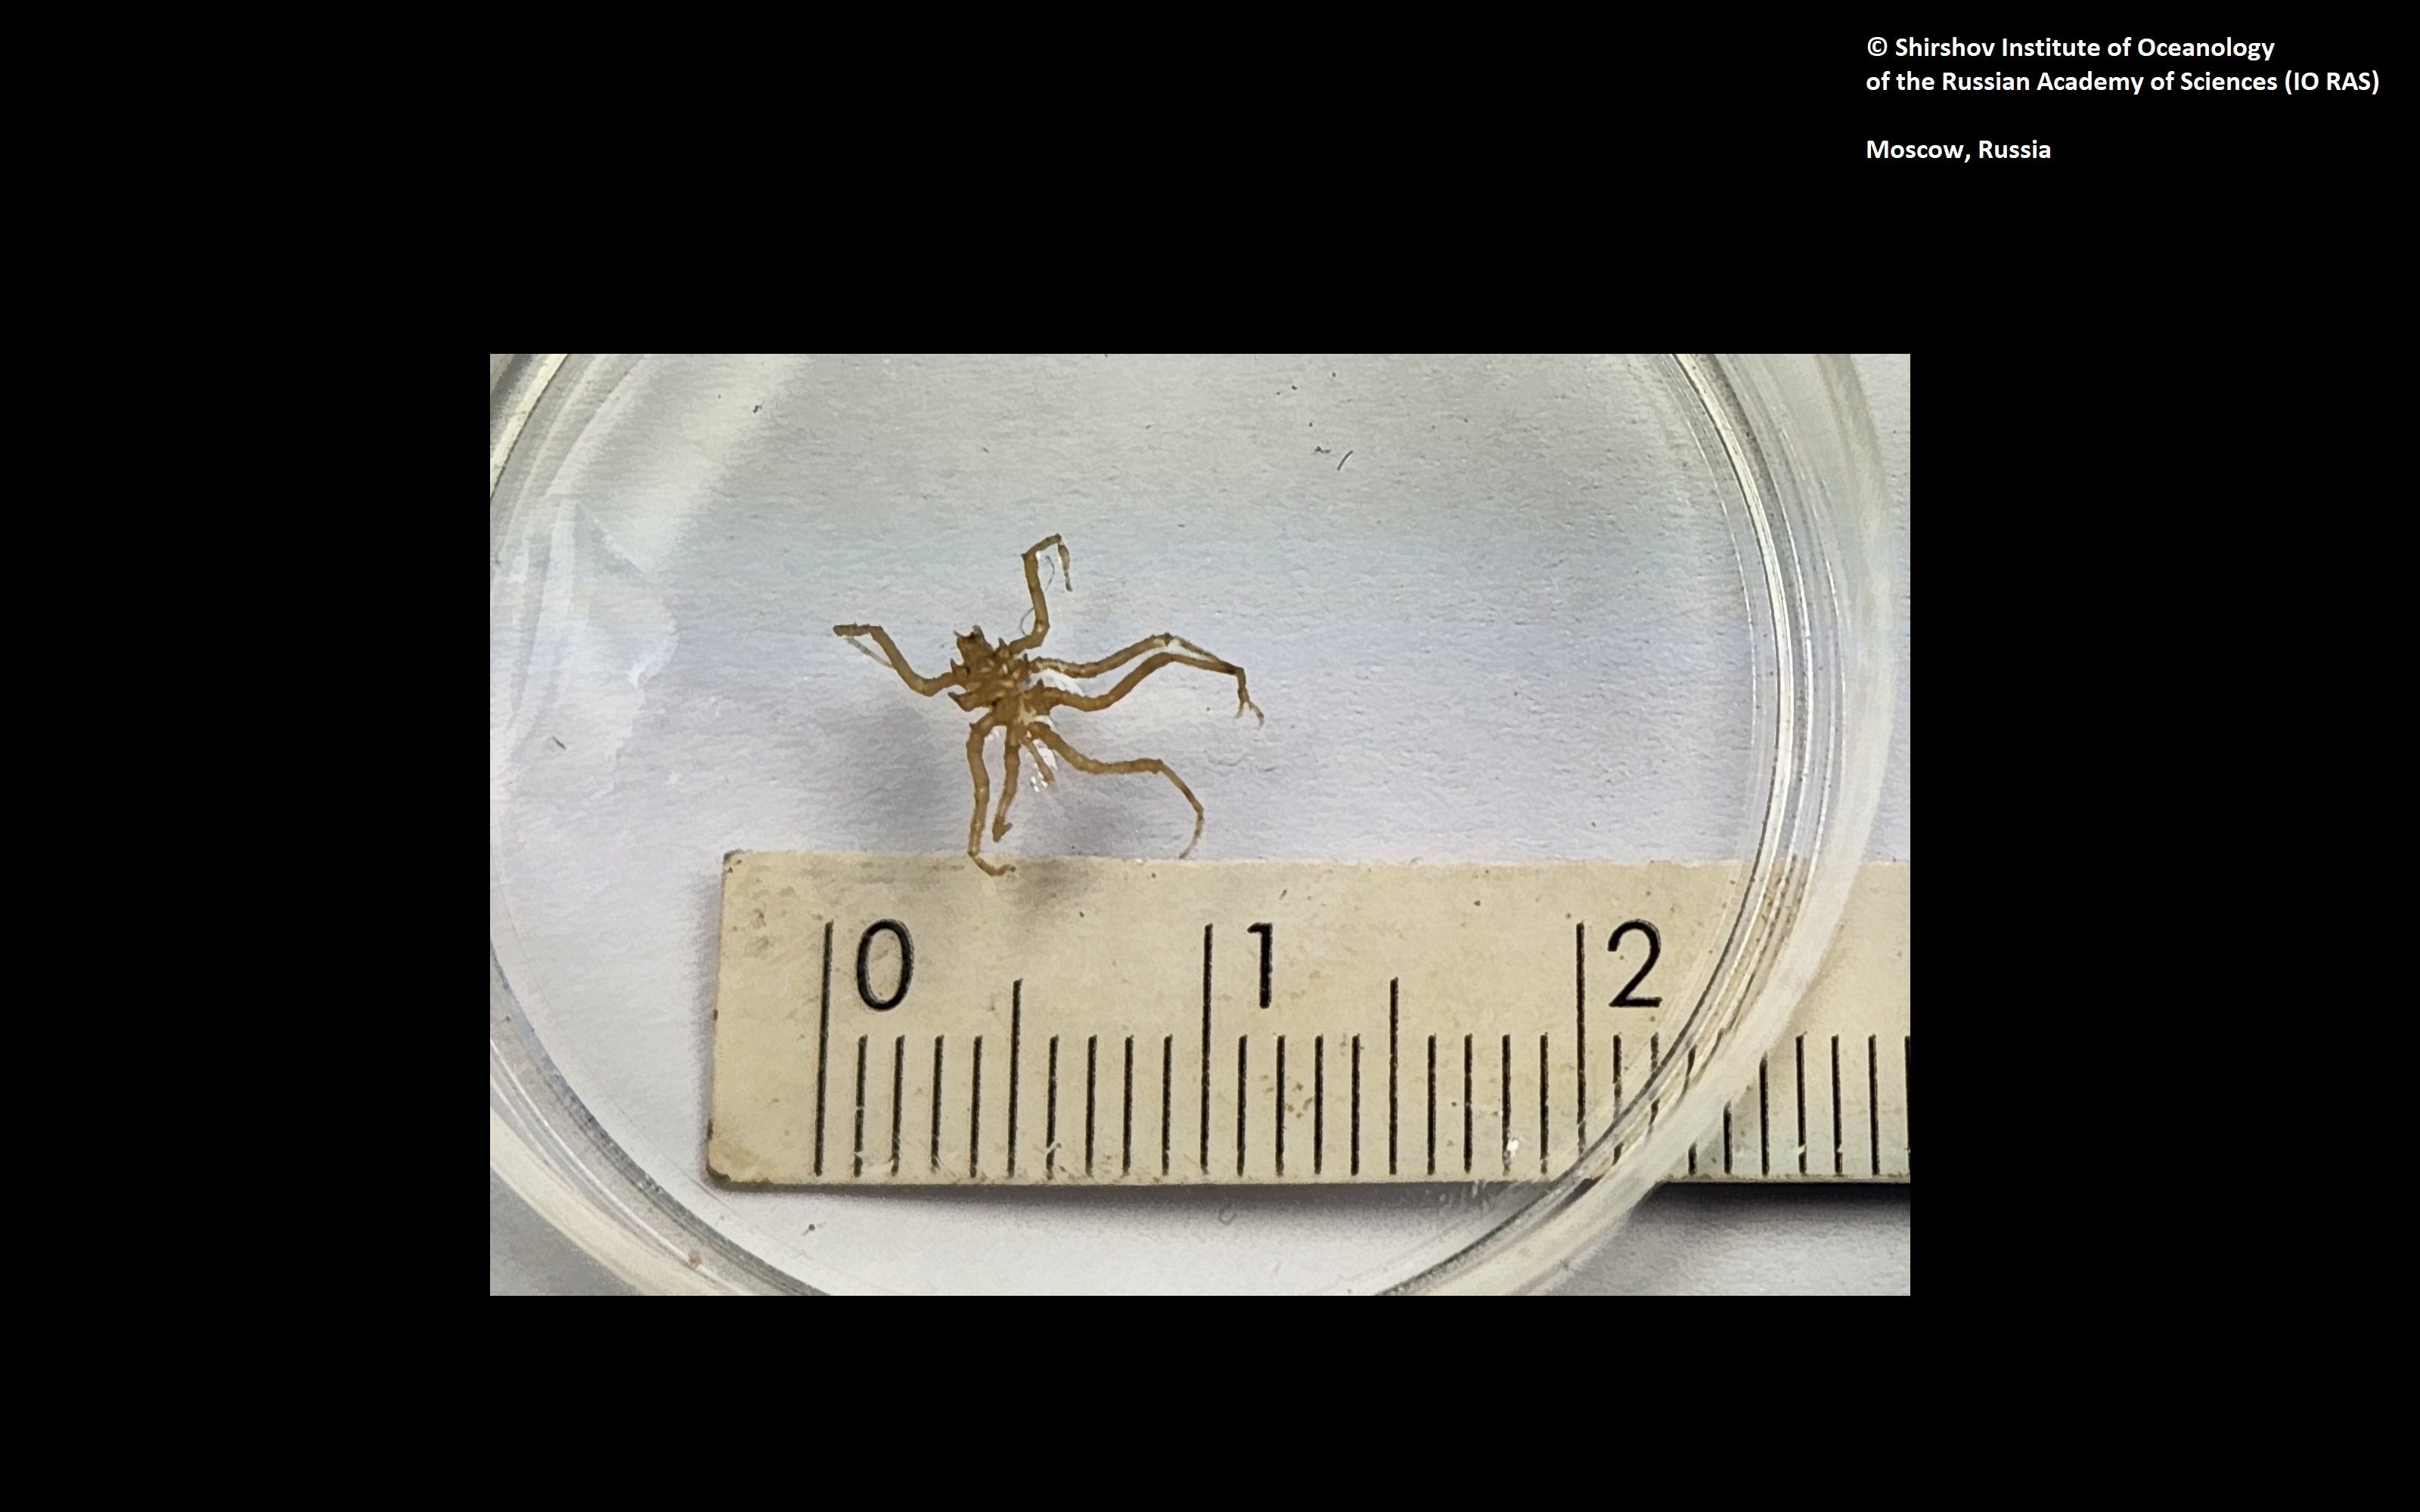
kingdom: Animalia
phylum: Arthropoda
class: Pycnogonida
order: Pantopoda
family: Ascorhynchidae
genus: Ascorhynchus
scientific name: Ascorhynchus hippos
